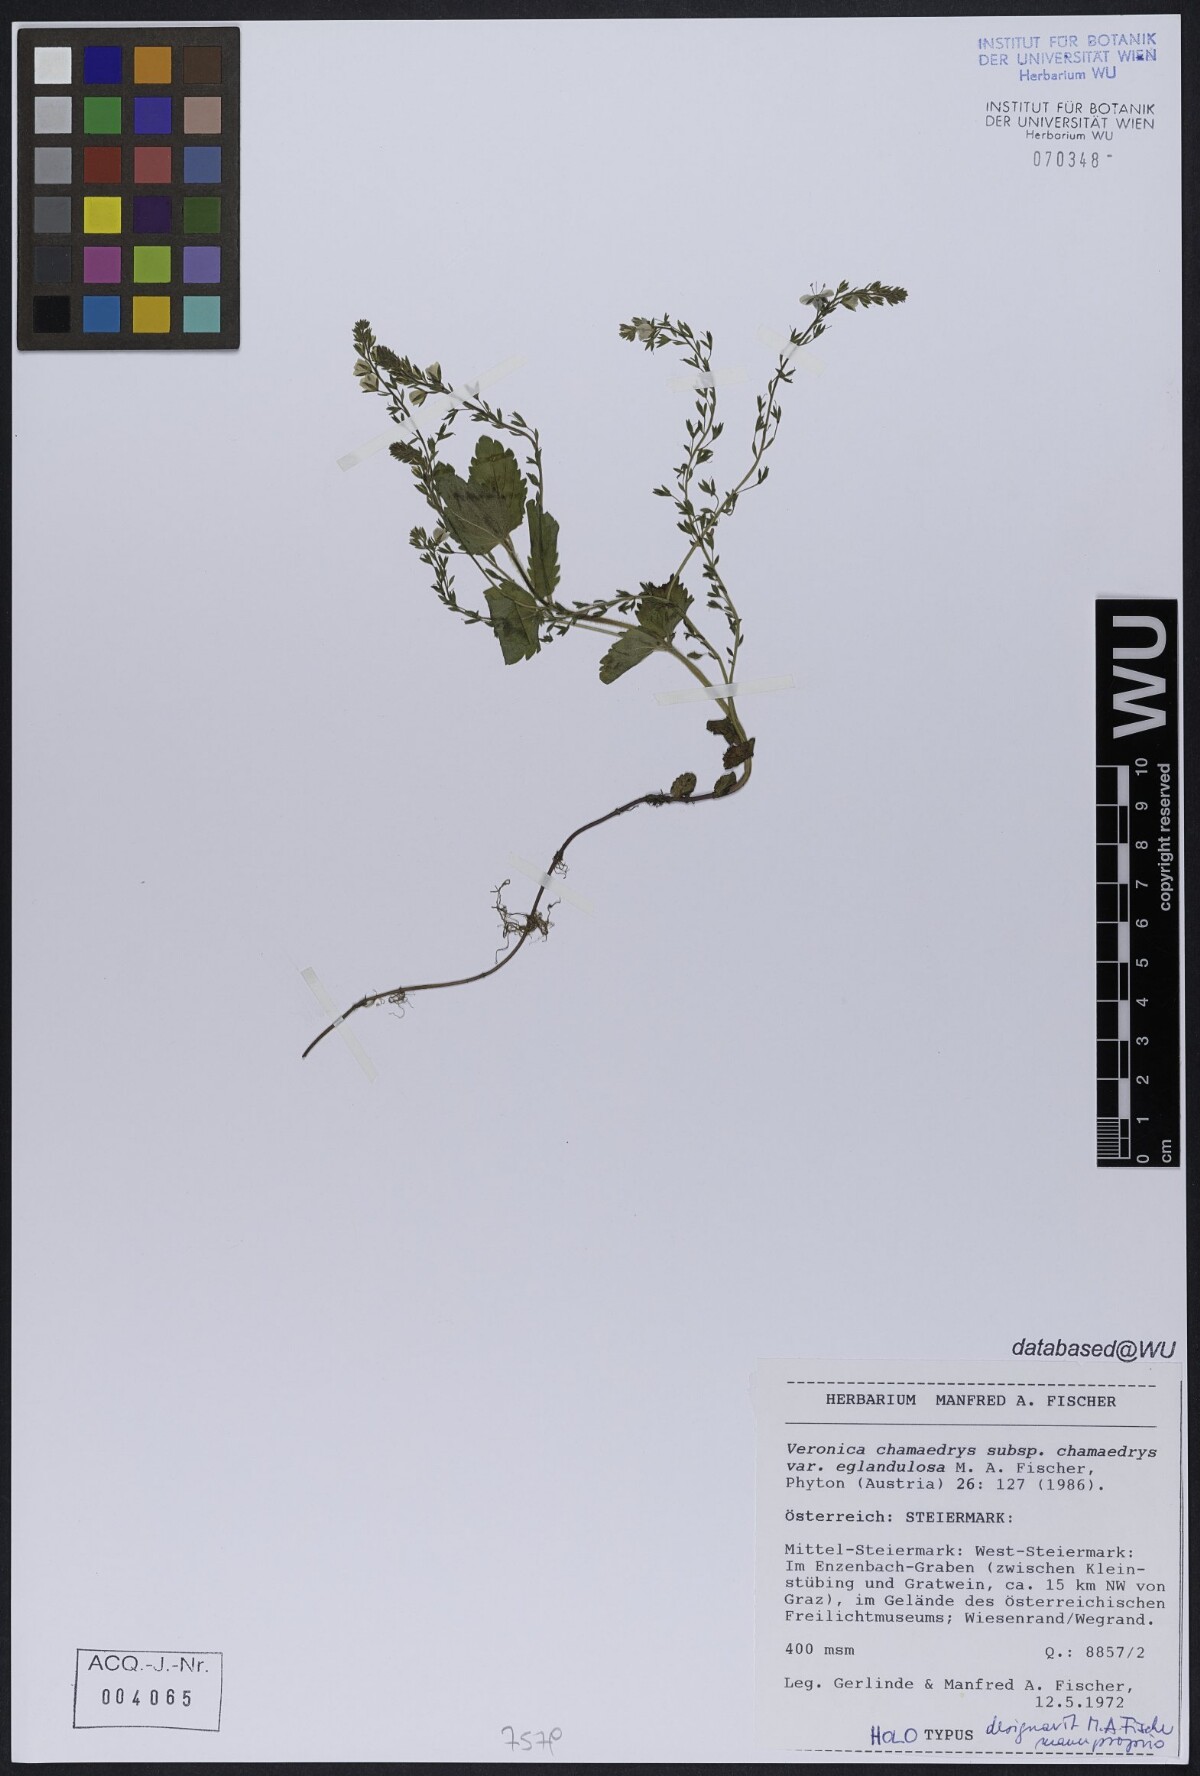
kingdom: Plantae
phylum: Tracheophyta
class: Magnoliopsida
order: Lamiales
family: Plantaginaceae
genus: Veronica
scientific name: Veronica chamaedrys
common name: Germander speedwell
